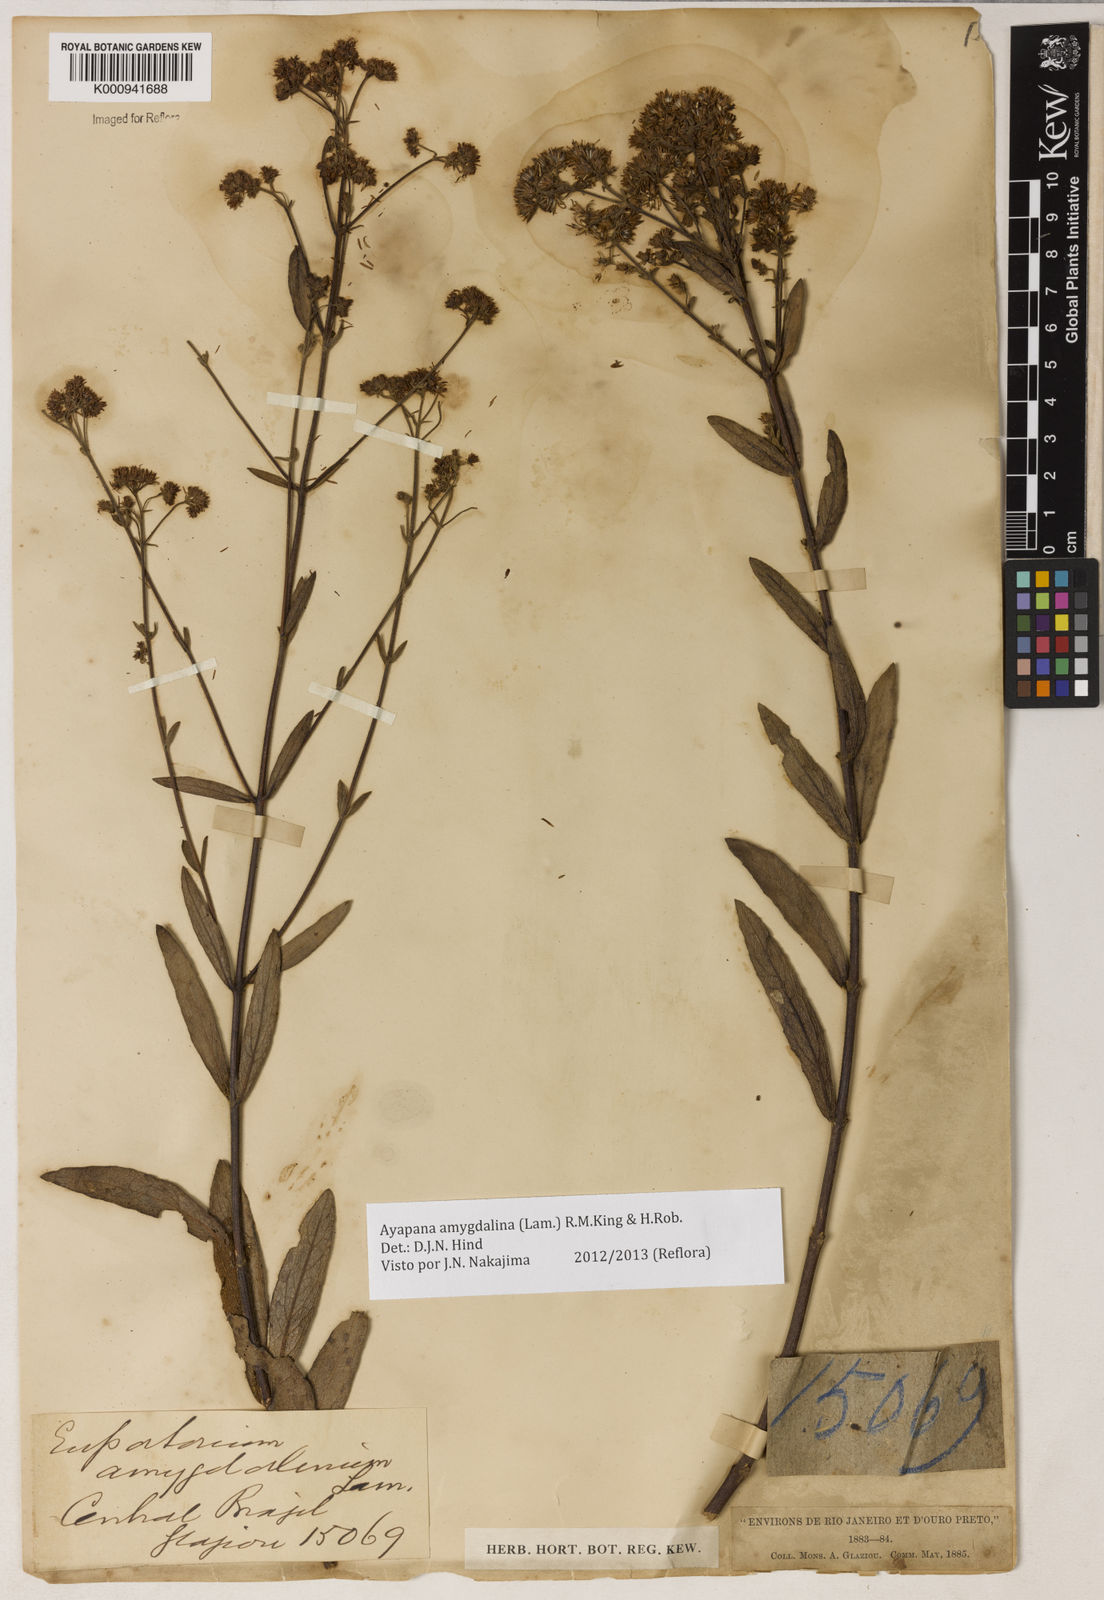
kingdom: Plantae
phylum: Tracheophyta
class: Magnoliopsida
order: Asterales
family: Asteraceae
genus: Ayapana
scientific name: Ayapana amygdalina
